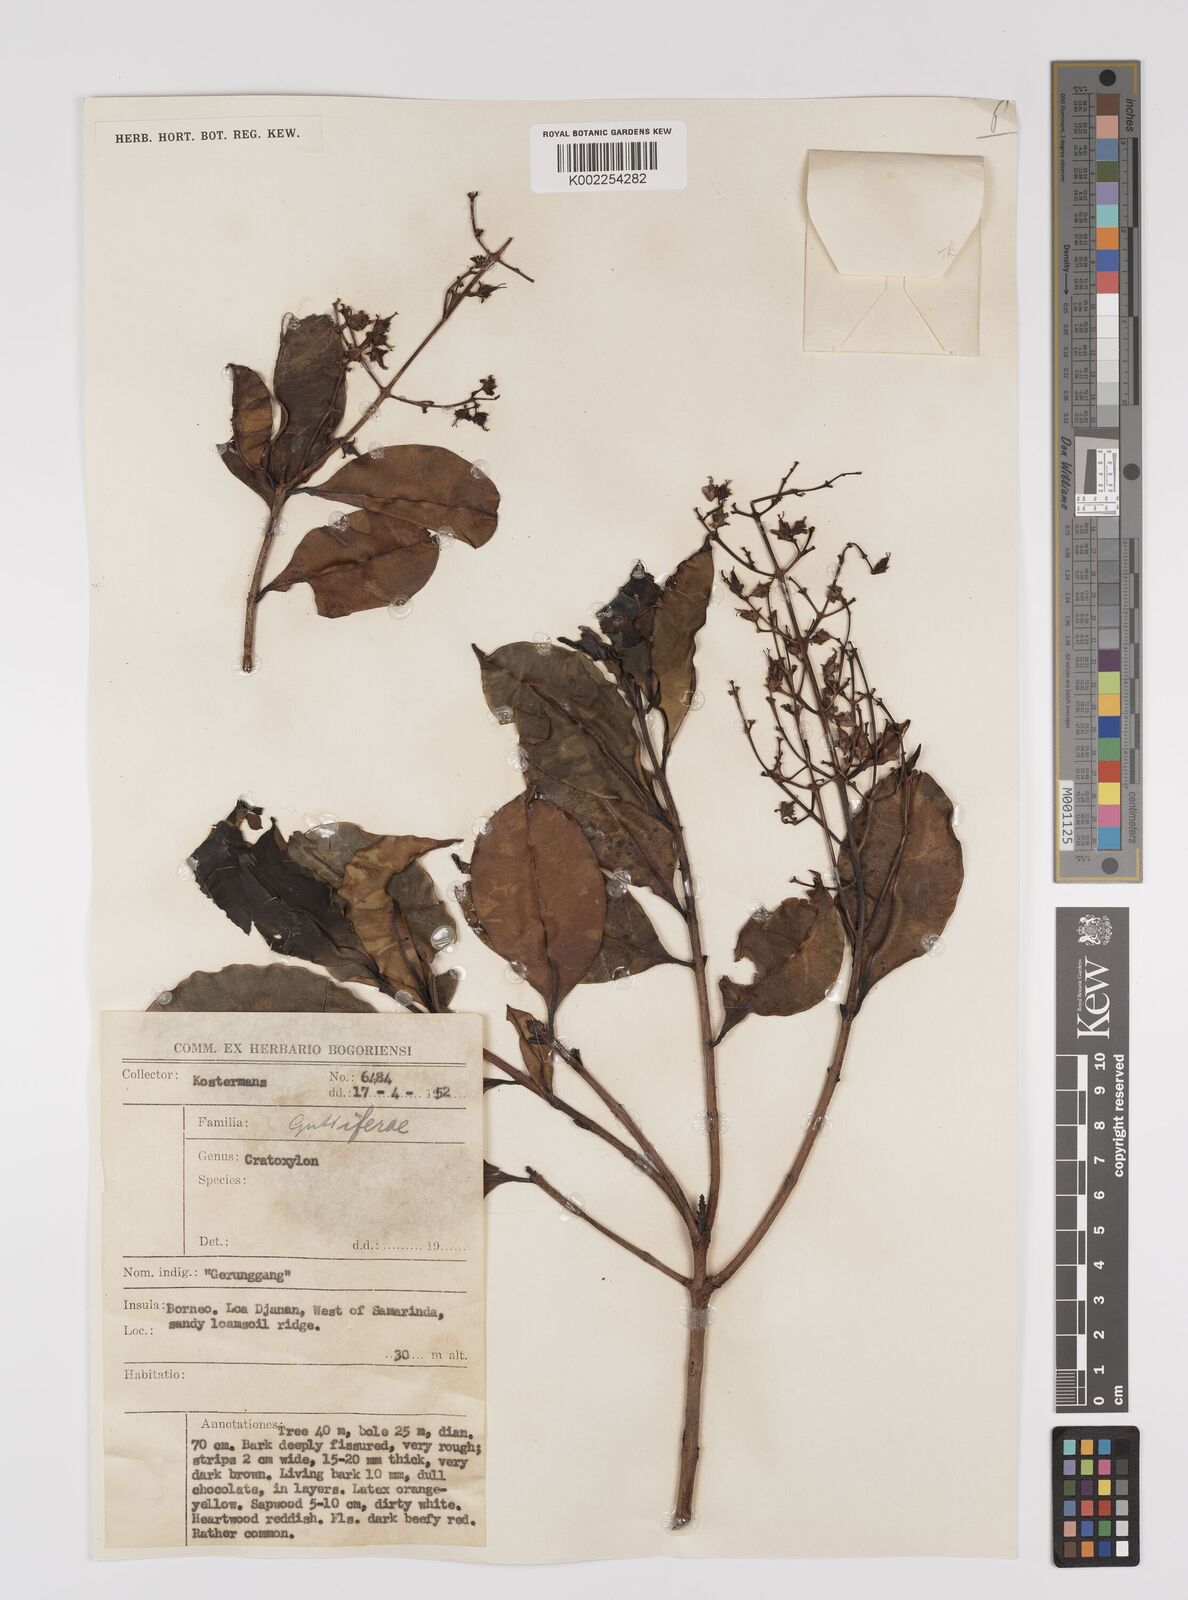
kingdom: Plantae
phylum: Tracheophyta
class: Magnoliopsida
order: Malpighiales
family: Hypericaceae
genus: Cratoxylum
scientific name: Cratoxylum
